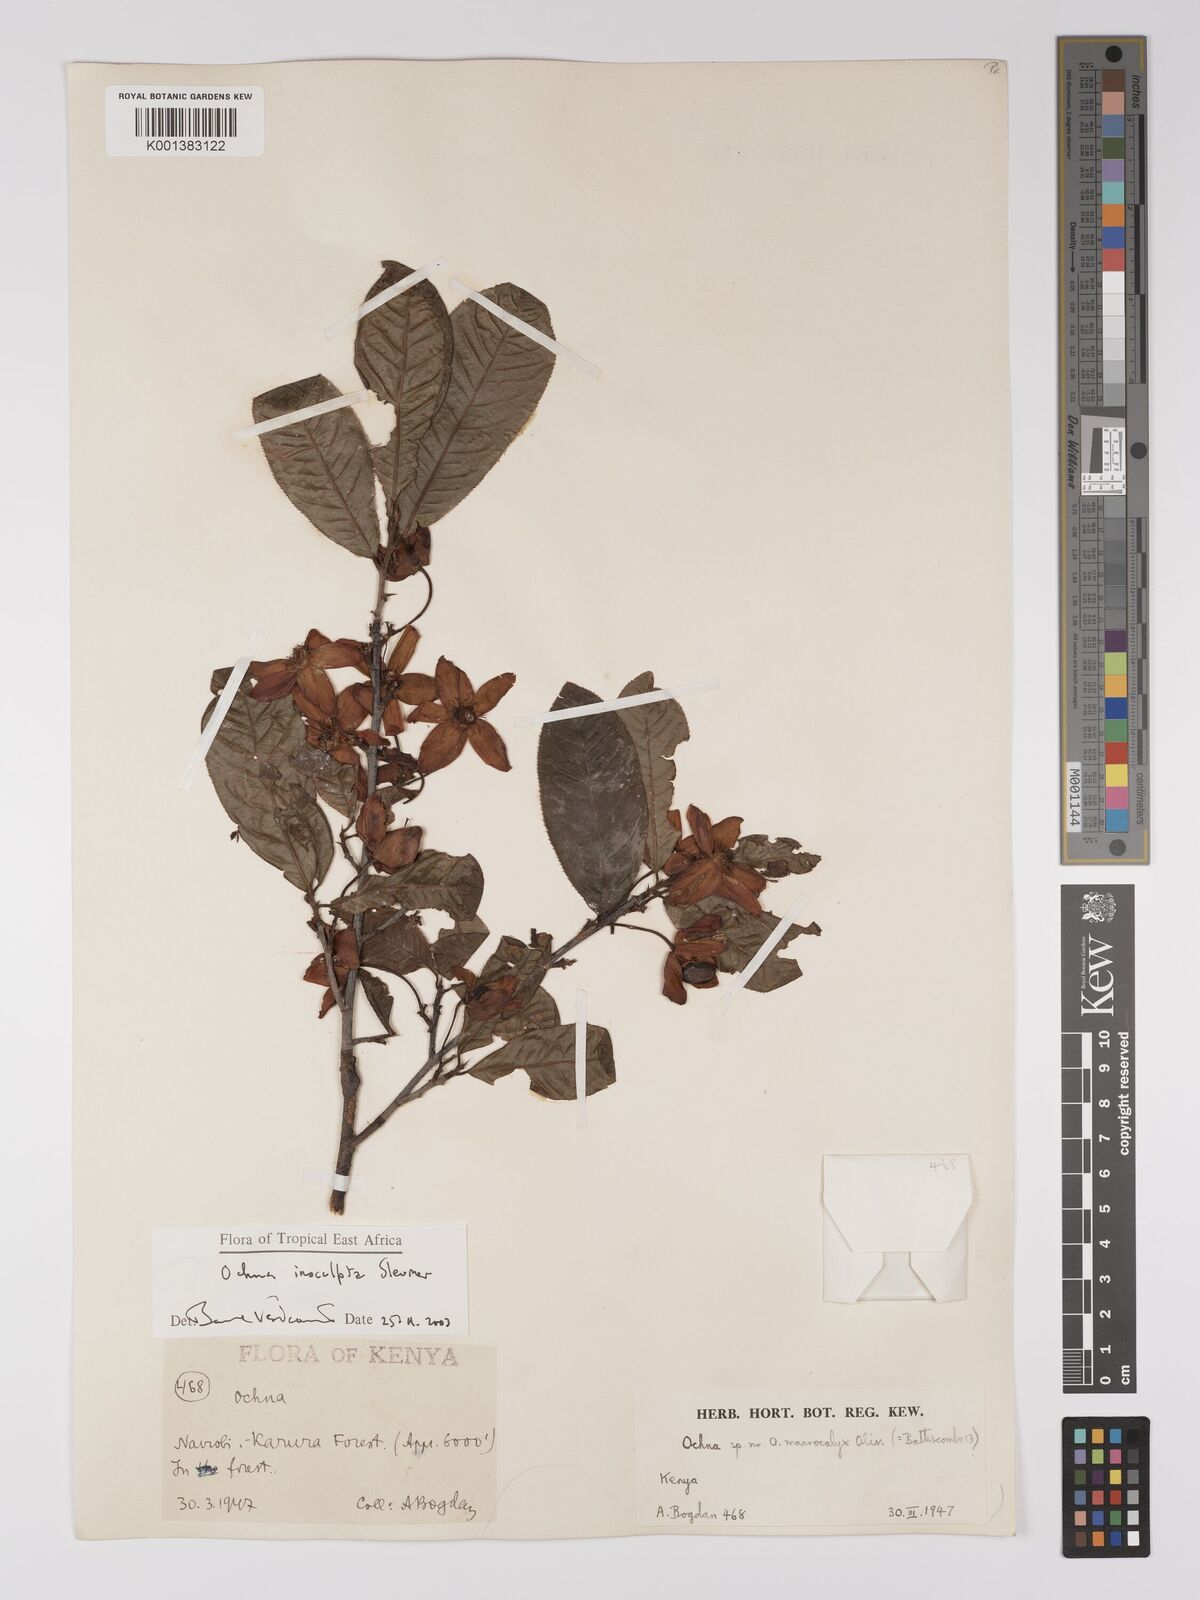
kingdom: Plantae
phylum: Tracheophyta
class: Magnoliopsida
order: Malpighiales
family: Ochnaceae
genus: Ochna
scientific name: Ochna insculpta
